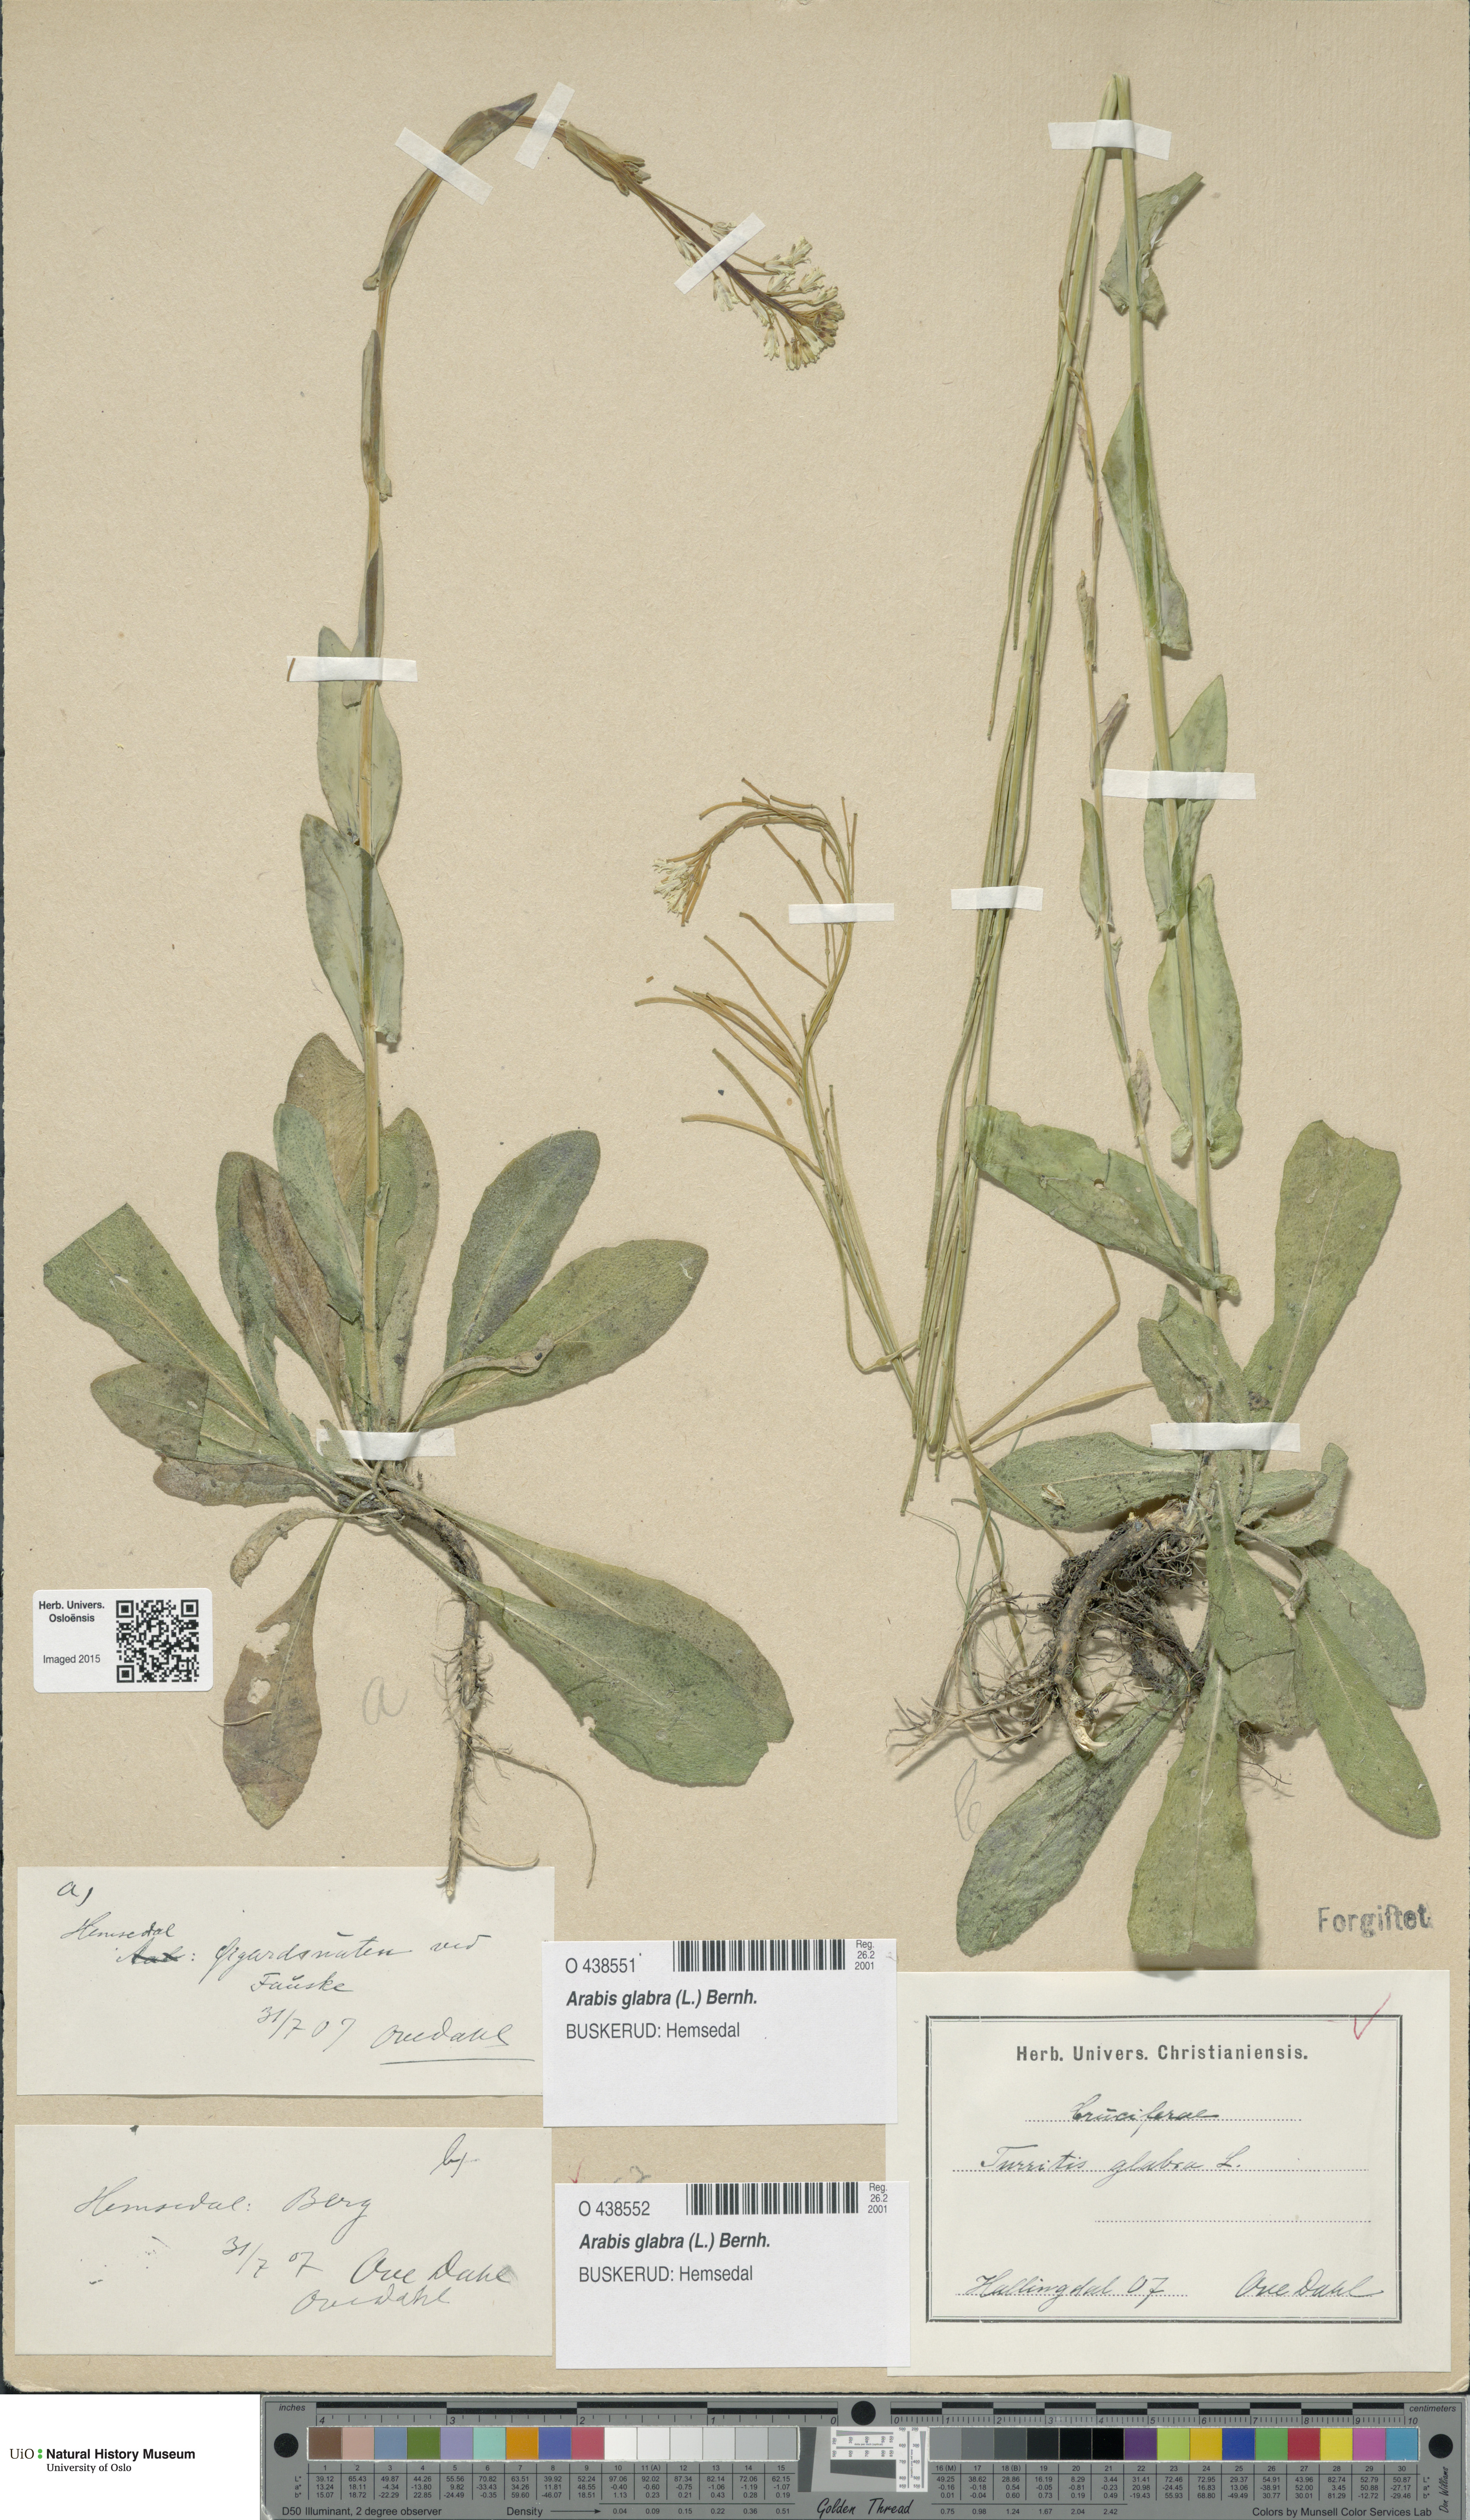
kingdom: Plantae
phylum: Tracheophyta
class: Magnoliopsida
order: Brassicales
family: Brassicaceae
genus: Turritis
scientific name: Turritis glabra
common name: Tower rockcress
